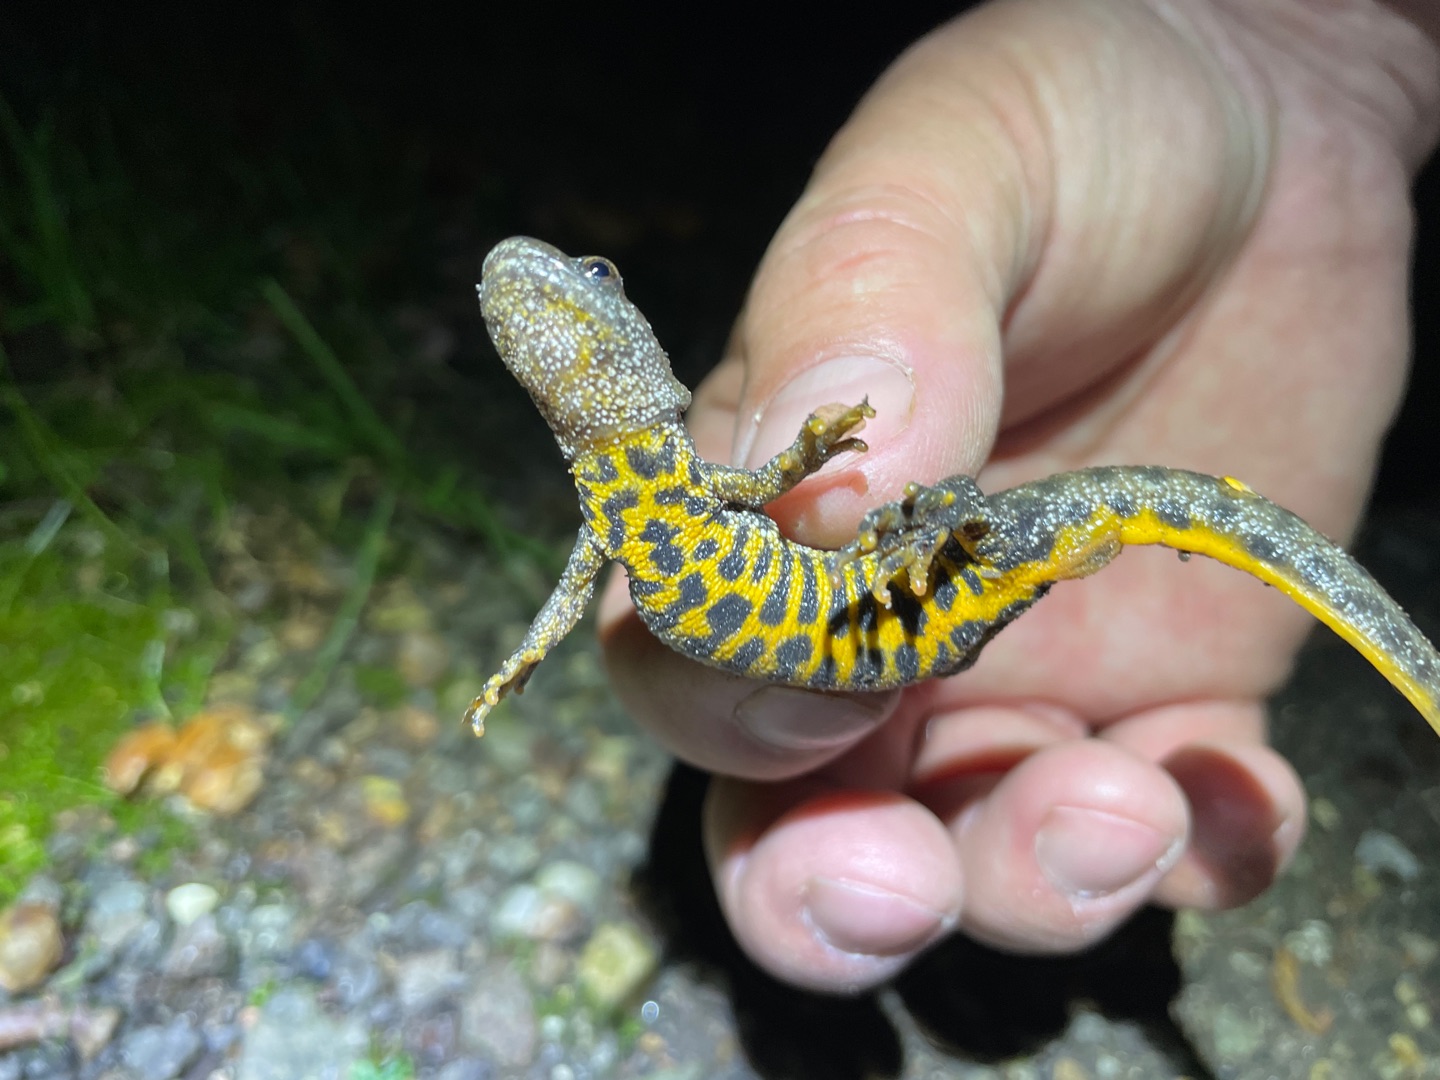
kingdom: Animalia
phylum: Chordata
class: Amphibia
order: Caudata
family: Salamandridae
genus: Triturus
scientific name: Triturus cristatus
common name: Stor vandsalamander
